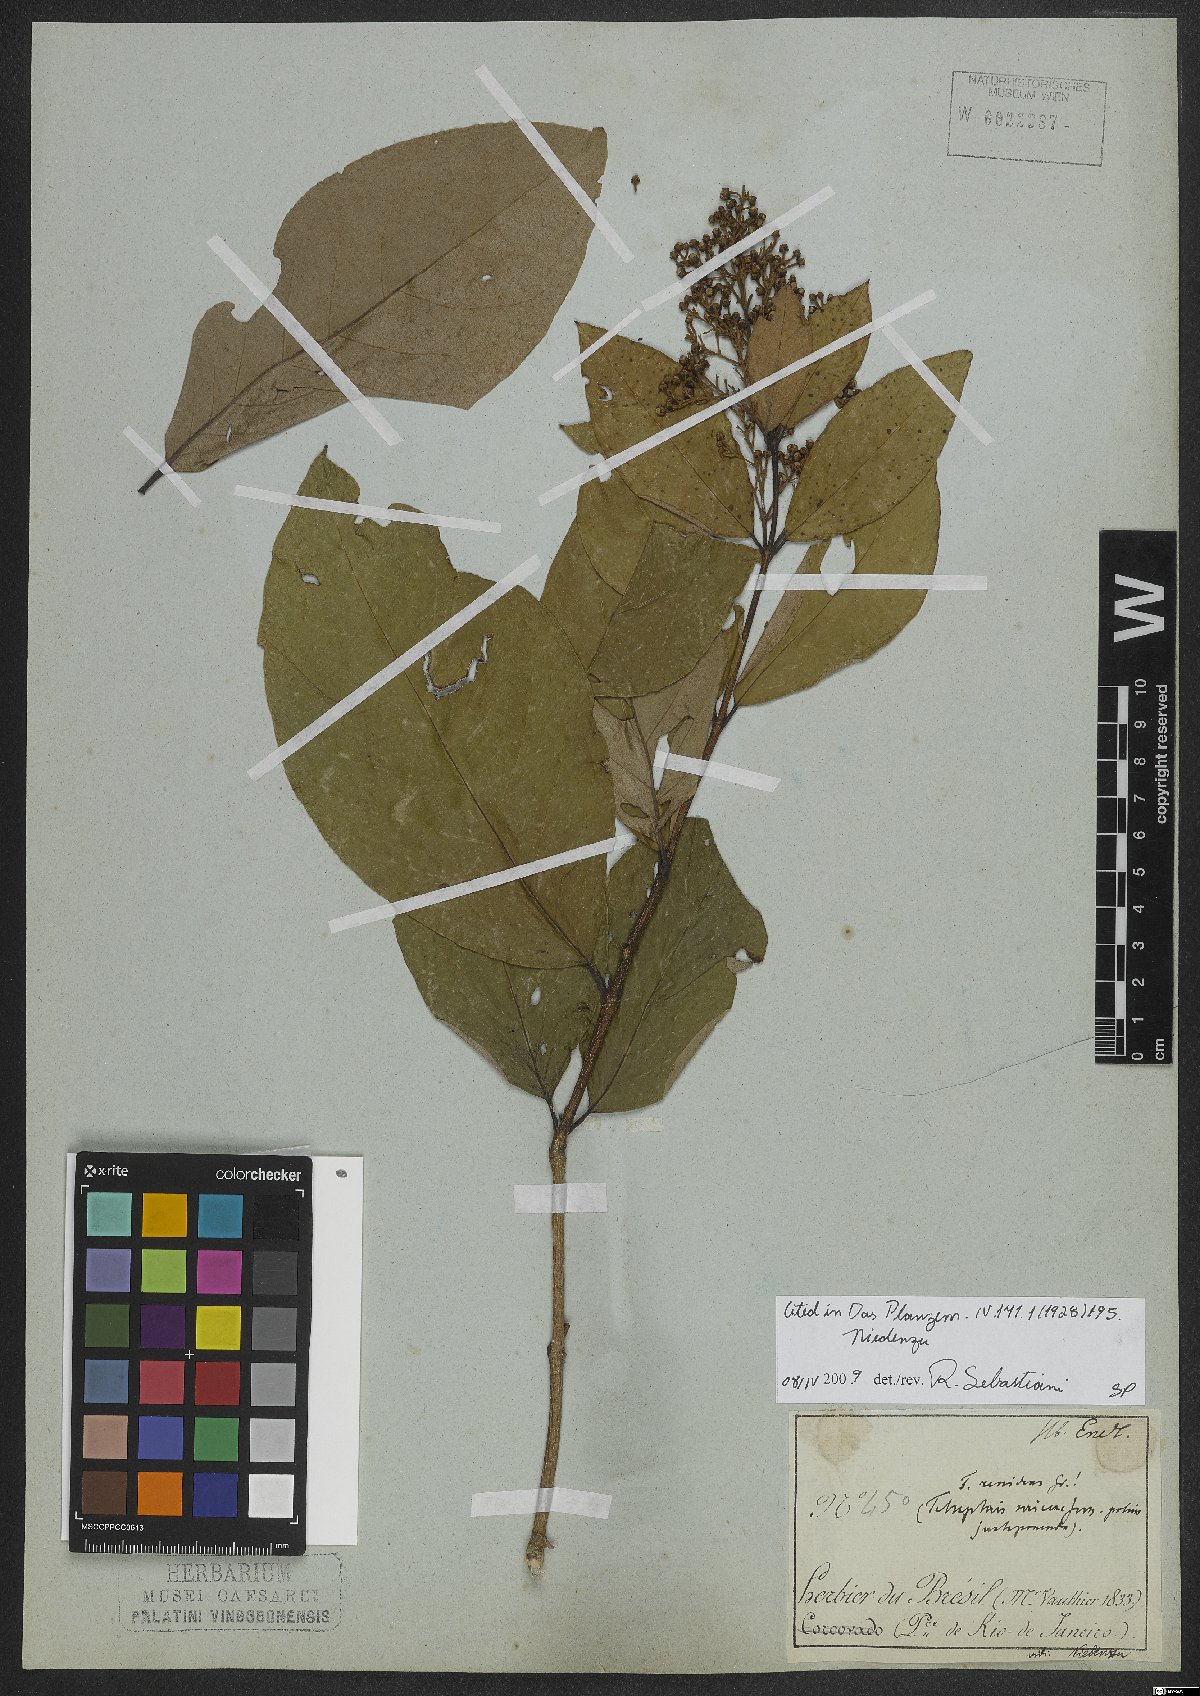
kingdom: Plantae
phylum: Tracheophyta
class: Magnoliopsida
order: Malpighiales
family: Malpighiaceae
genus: Carolus
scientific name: Carolus renidens
